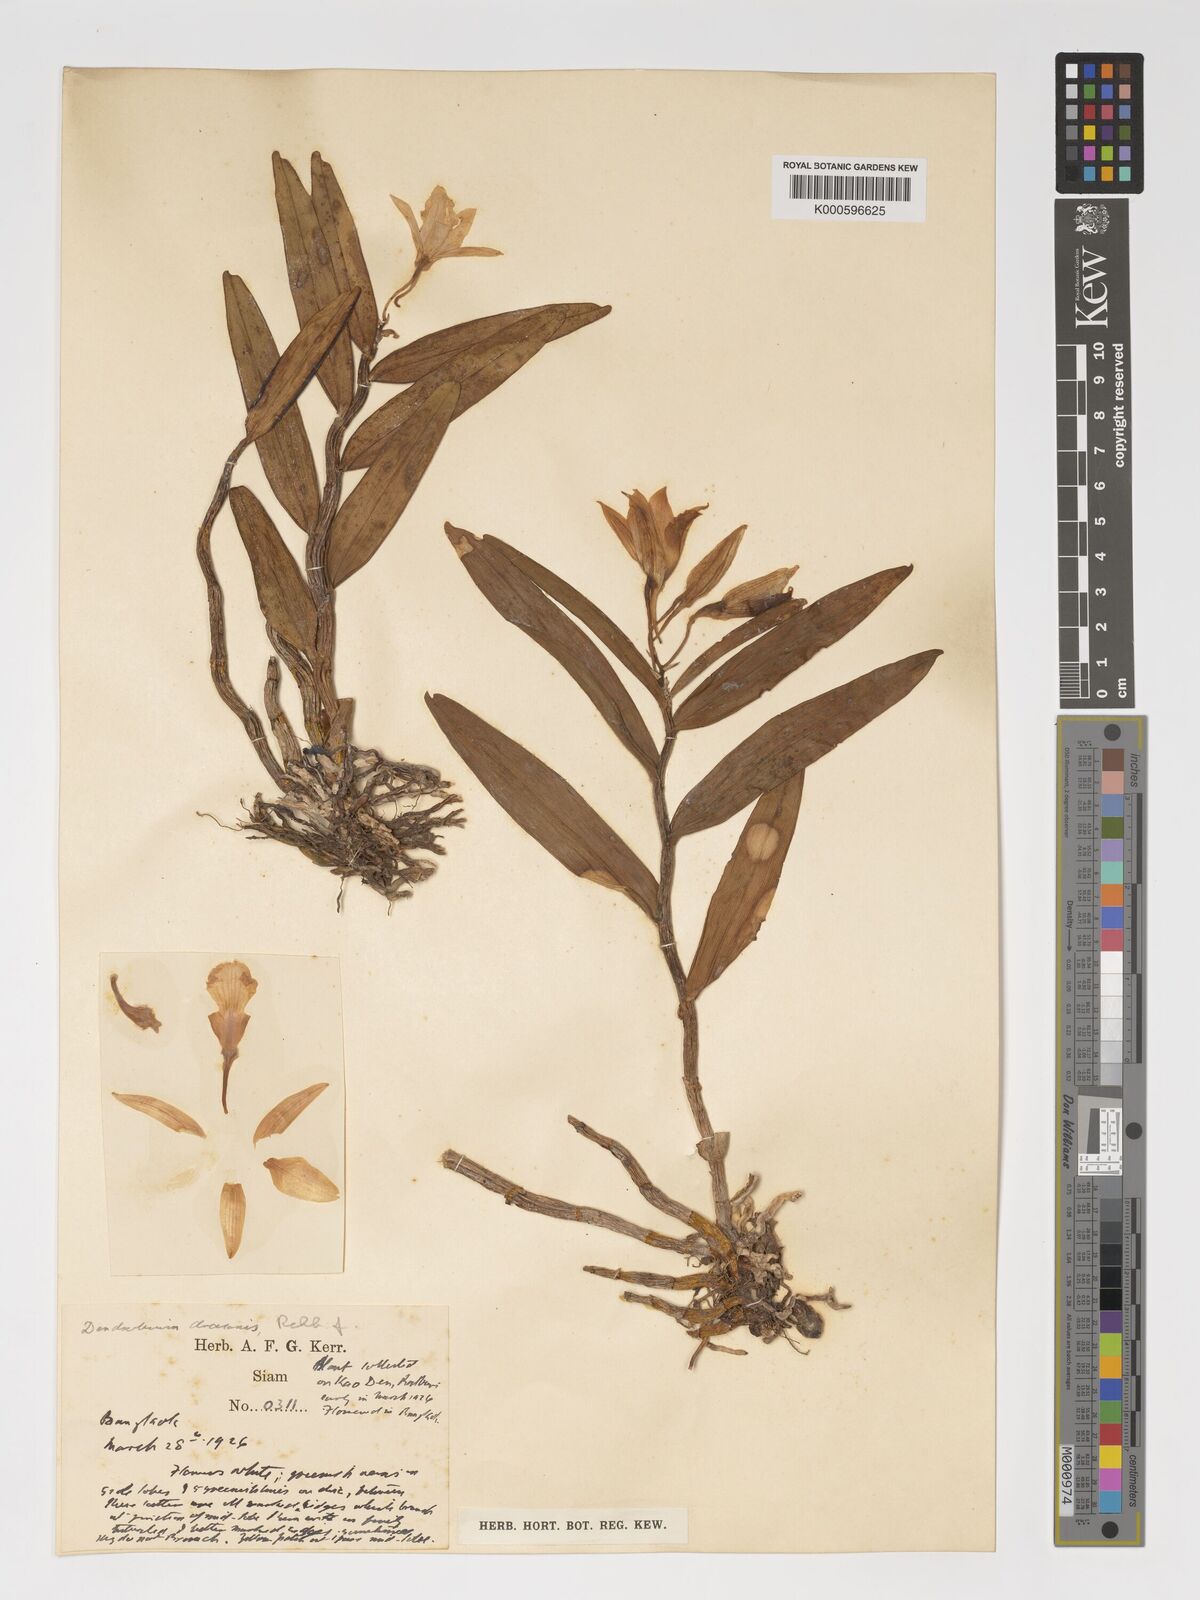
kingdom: Plantae
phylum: Tracheophyta
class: Liliopsida
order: Asparagales
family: Orchidaceae
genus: Dendrobium
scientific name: Dendrobium draconis
